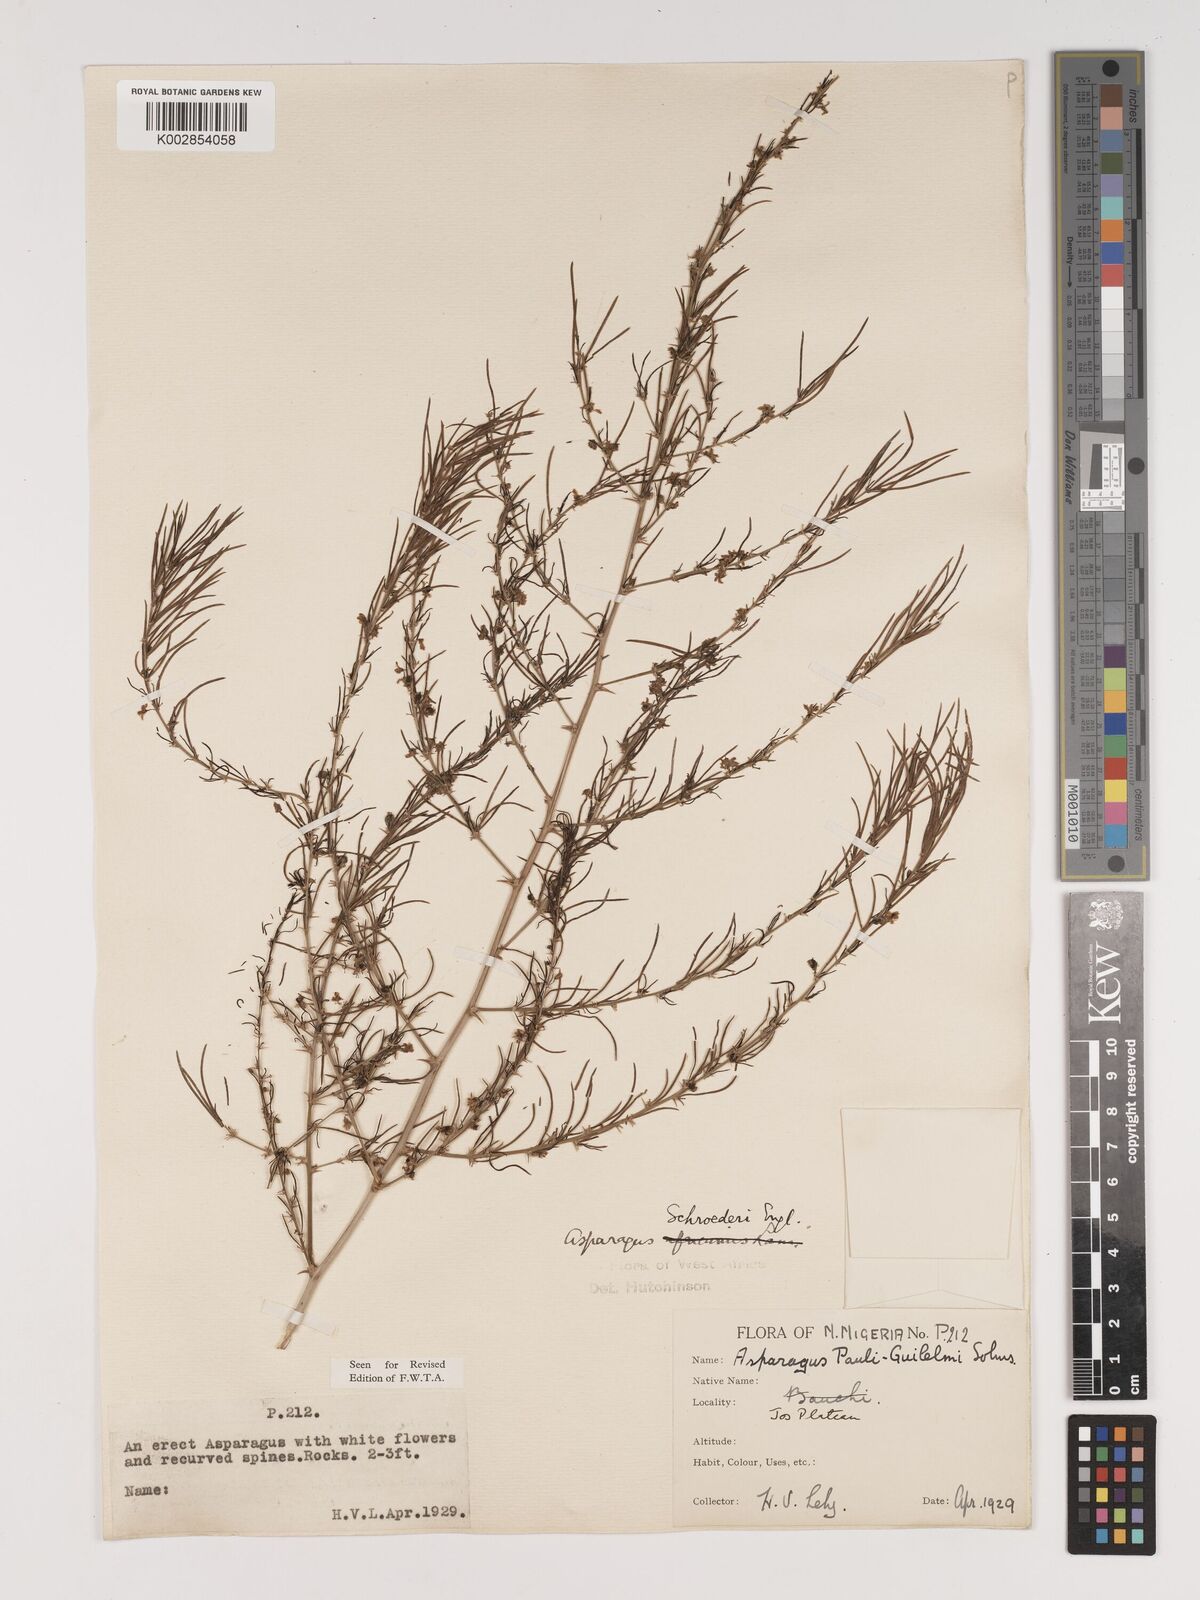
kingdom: Plantae
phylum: Tracheophyta
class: Liliopsida
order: Asparagales
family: Asparagaceae
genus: Asparagus
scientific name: Asparagus schroederi
